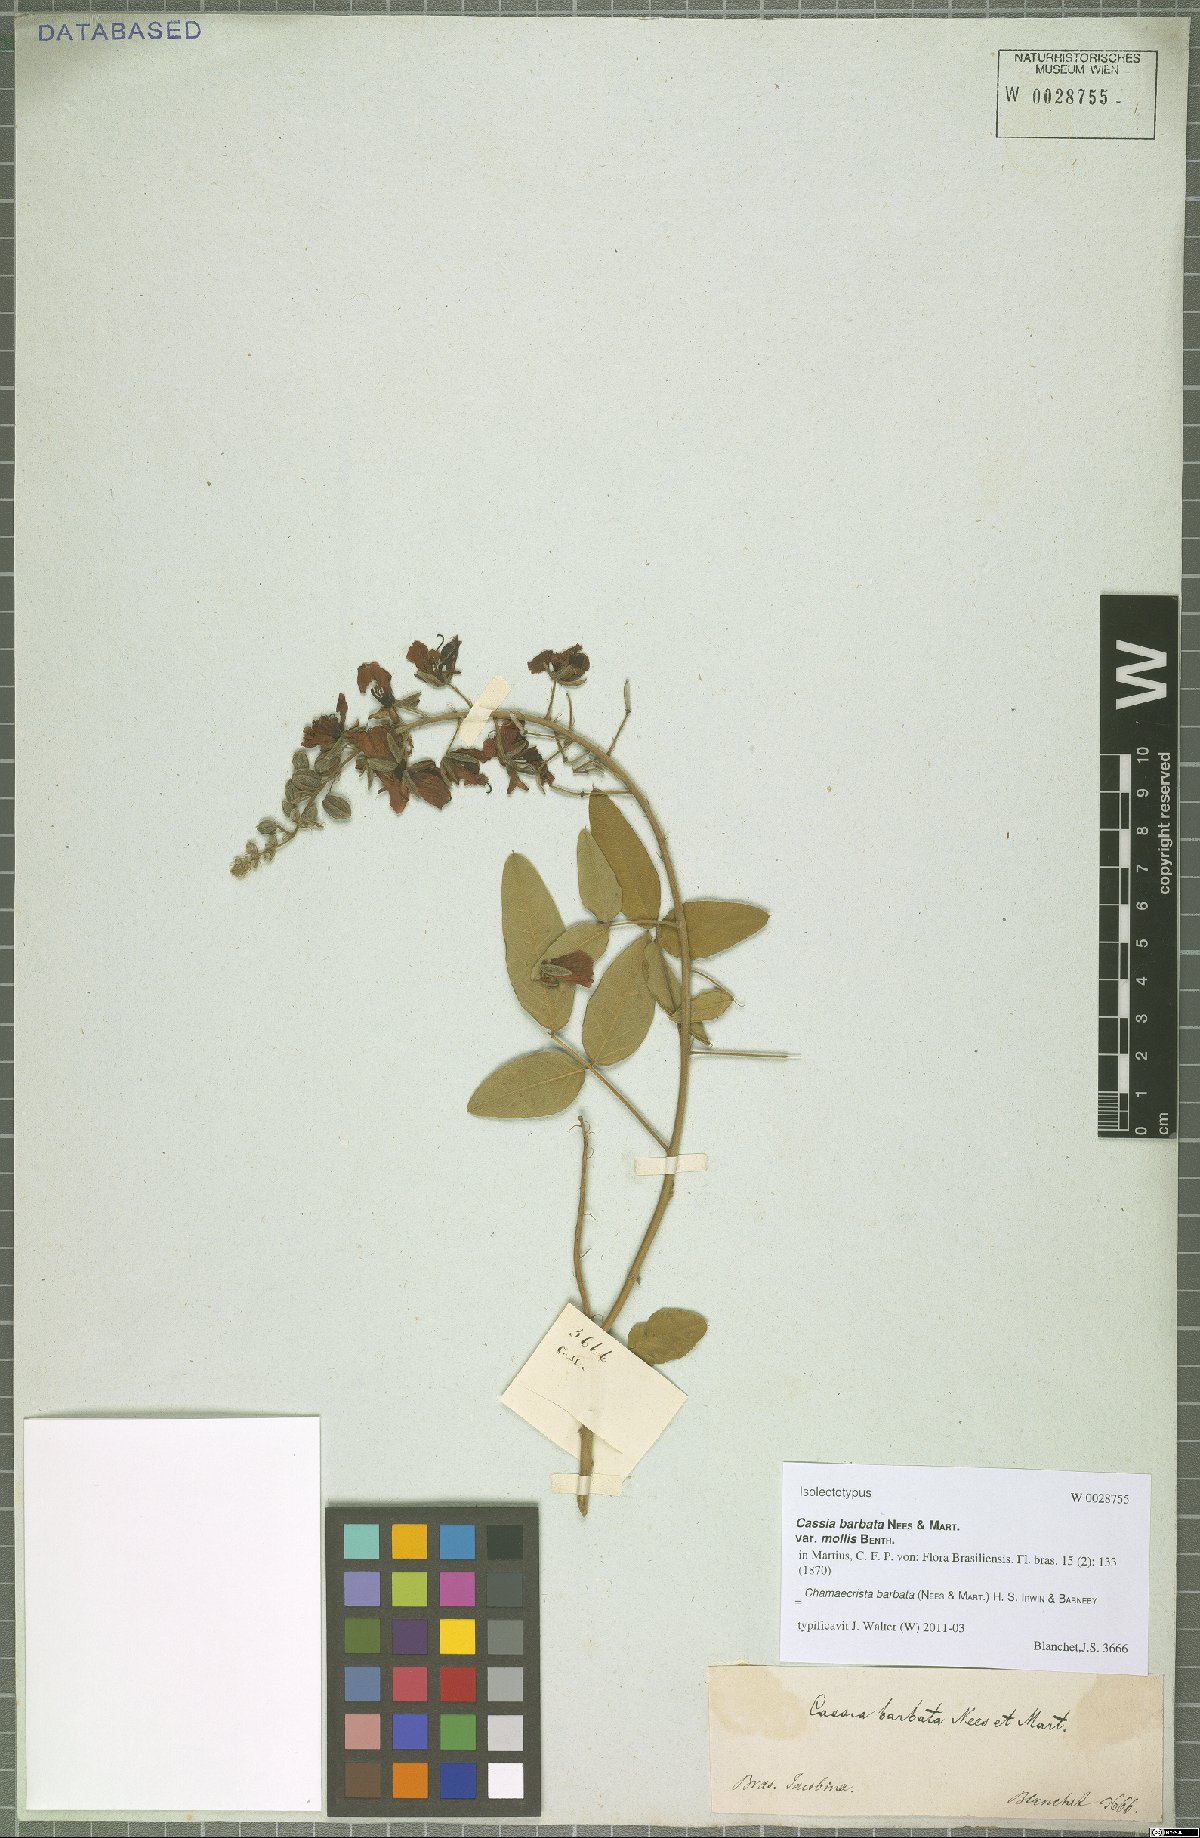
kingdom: Plantae
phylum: Tracheophyta
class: Magnoliopsida
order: Fabales
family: Fabaceae
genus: Chamaecrista
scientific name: Chamaecrista barbata
